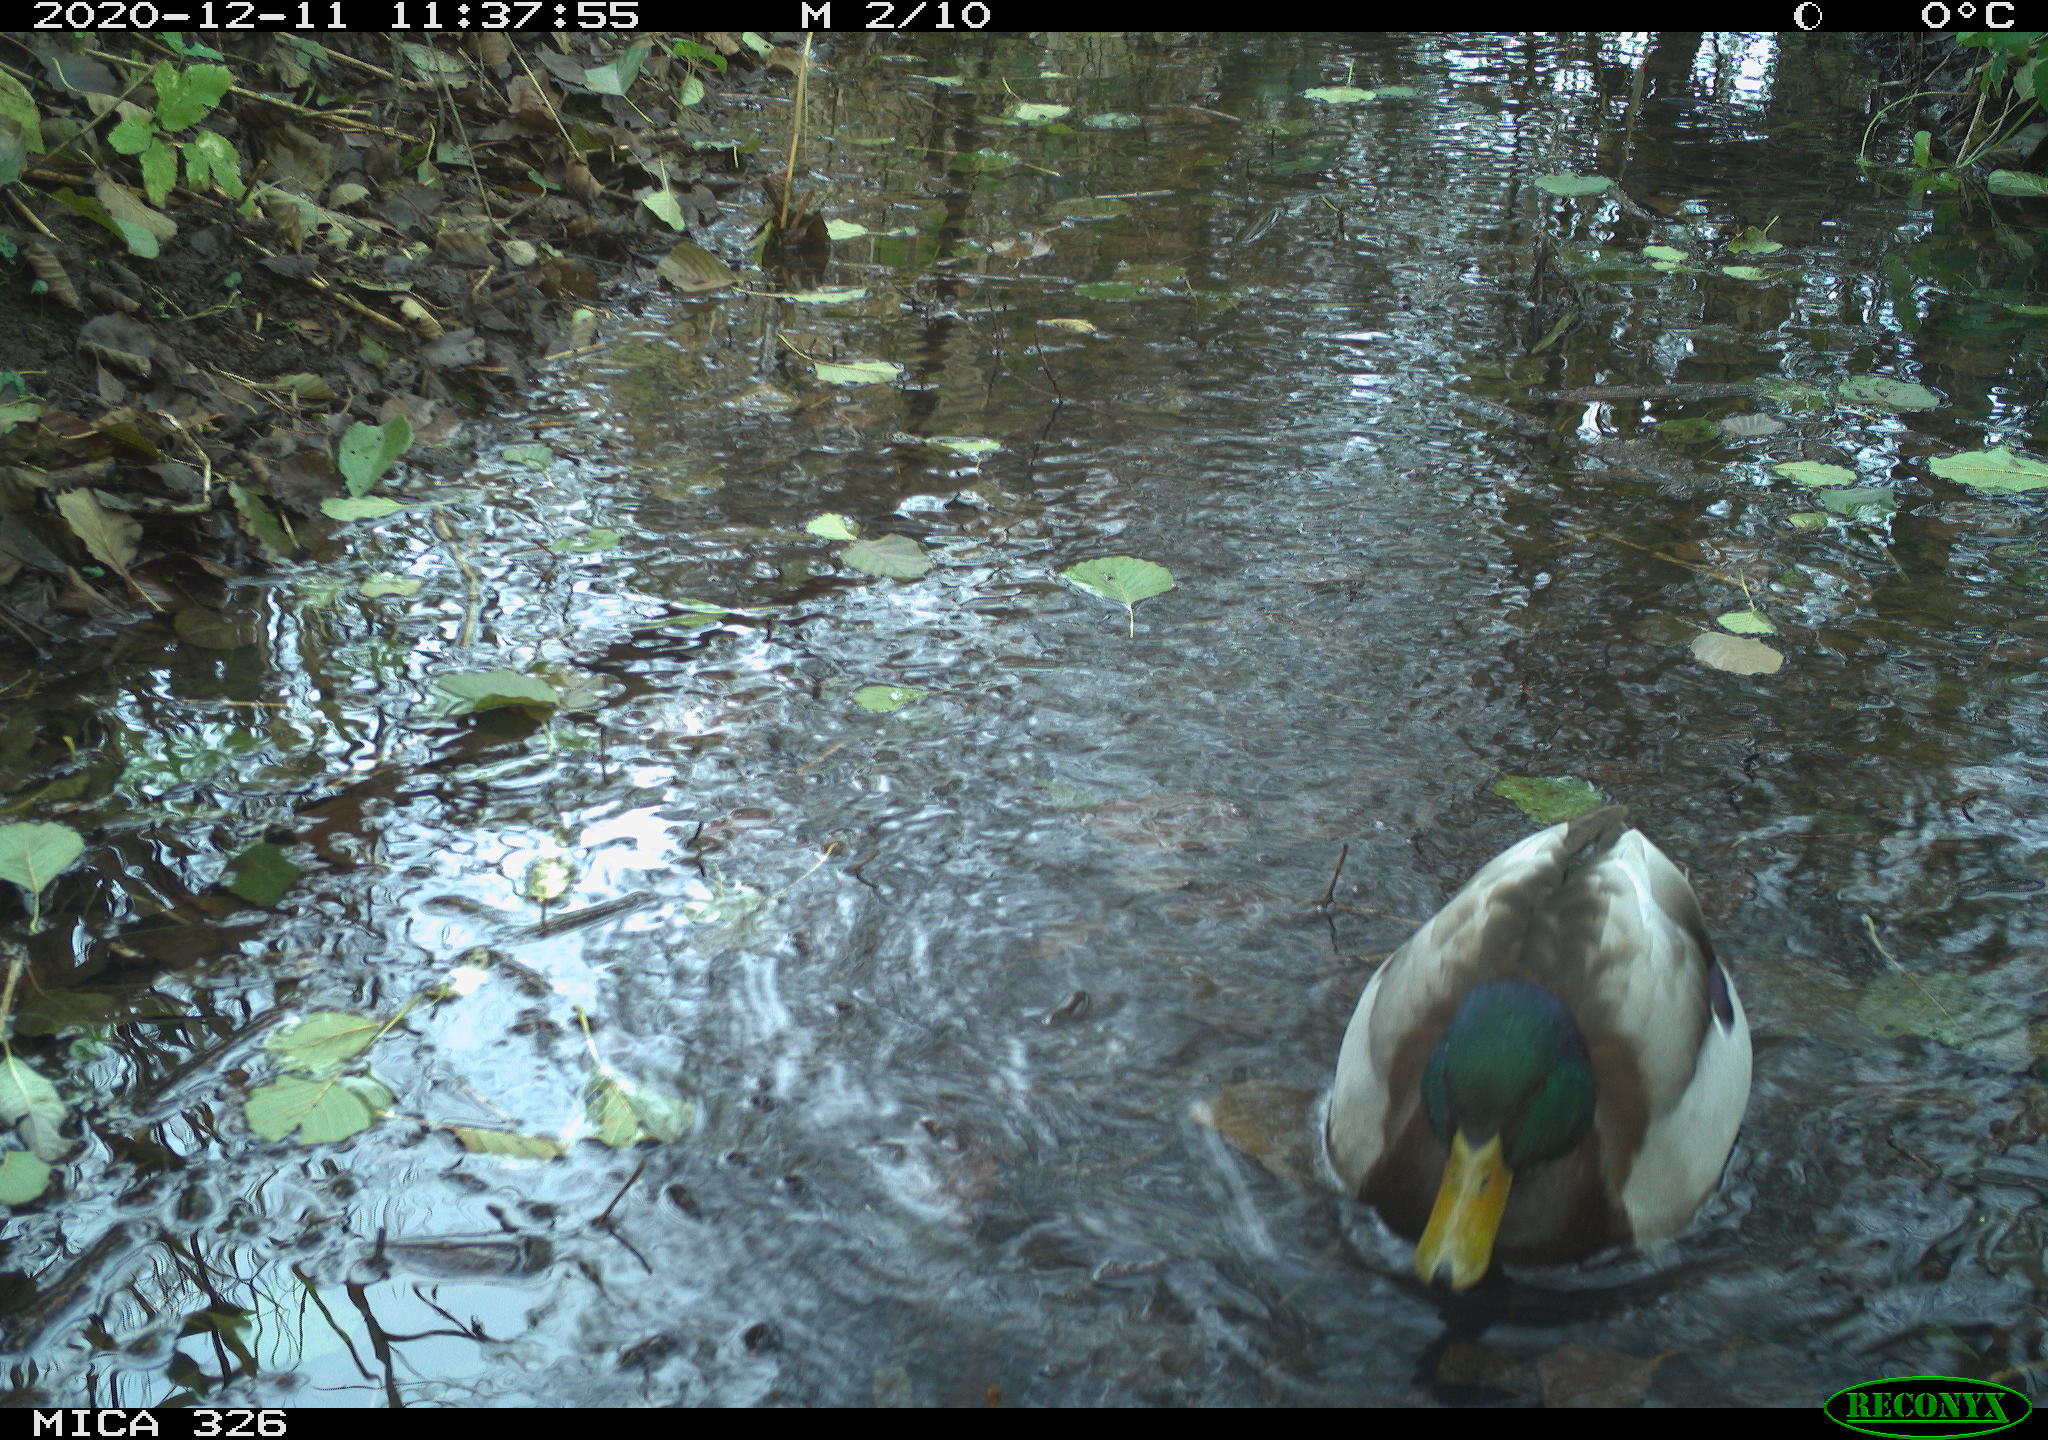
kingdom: Animalia
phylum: Chordata
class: Aves
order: Anseriformes
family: Anatidae
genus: Anas
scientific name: Anas platyrhynchos
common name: Mallard
